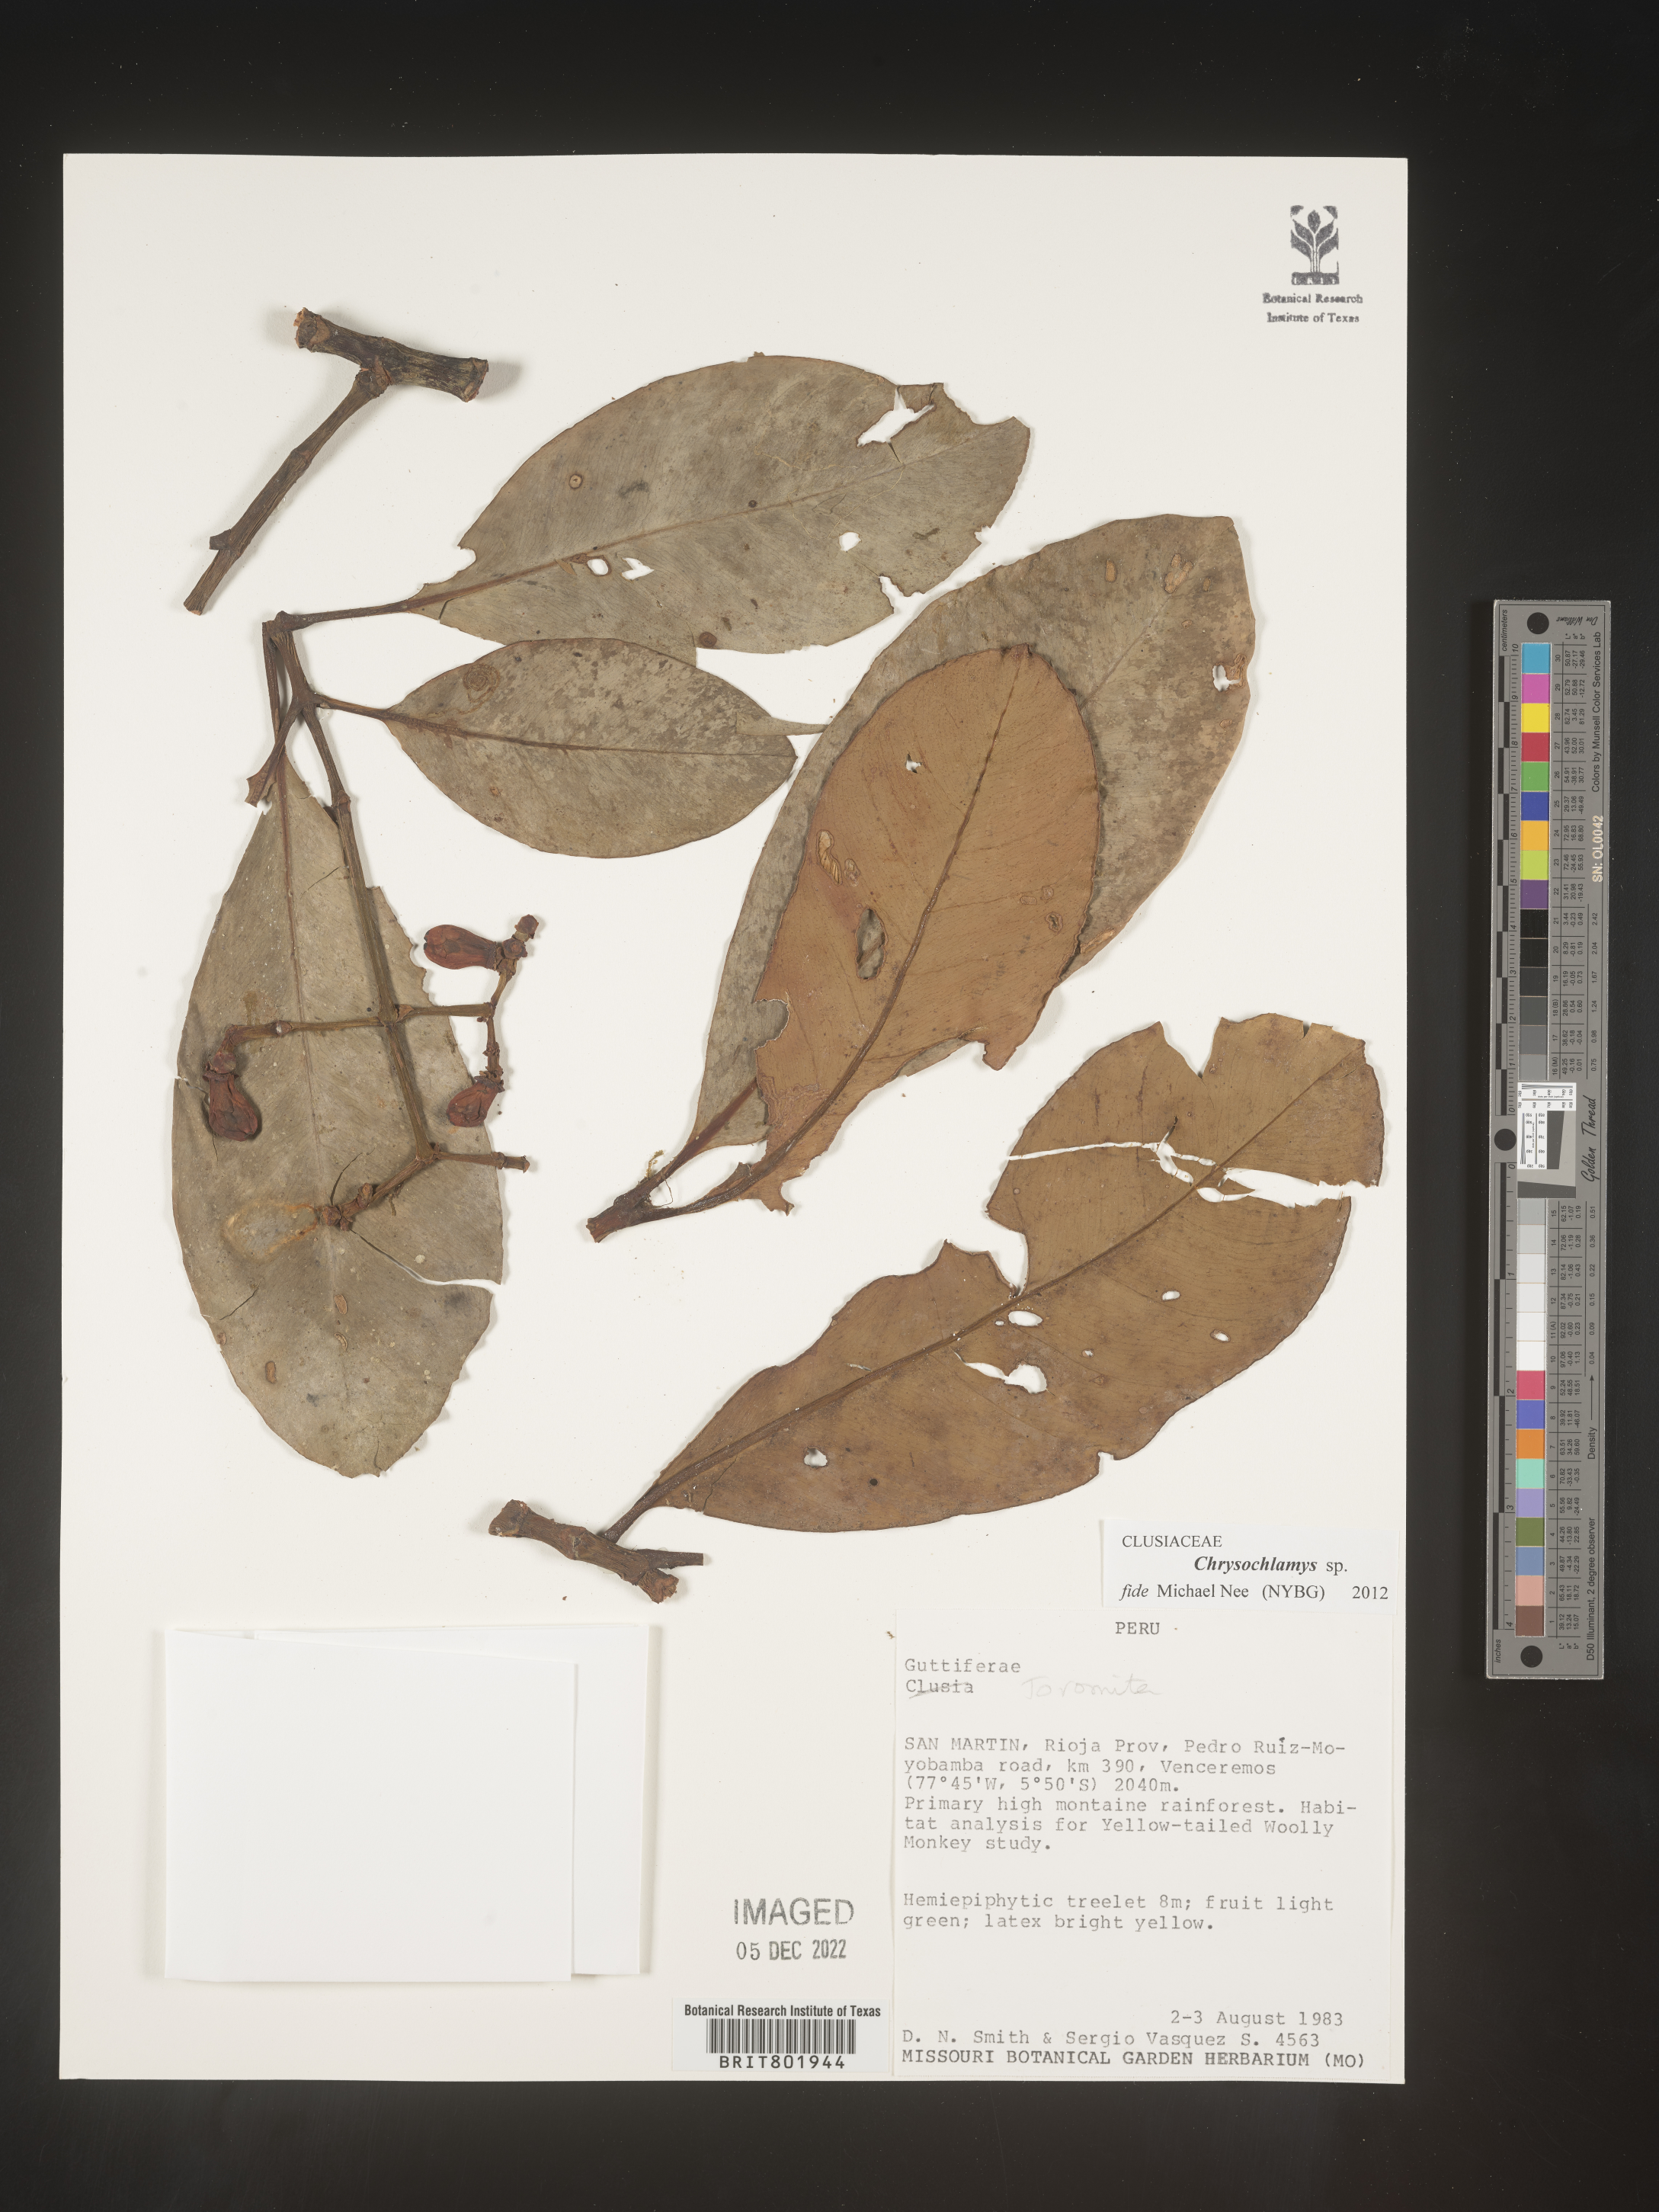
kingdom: Plantae
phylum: Tracheophyta
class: Magnoliopsida
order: Malpighiales
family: Clusiaceae
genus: Chrysochlamys
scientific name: Chrysochlamys
